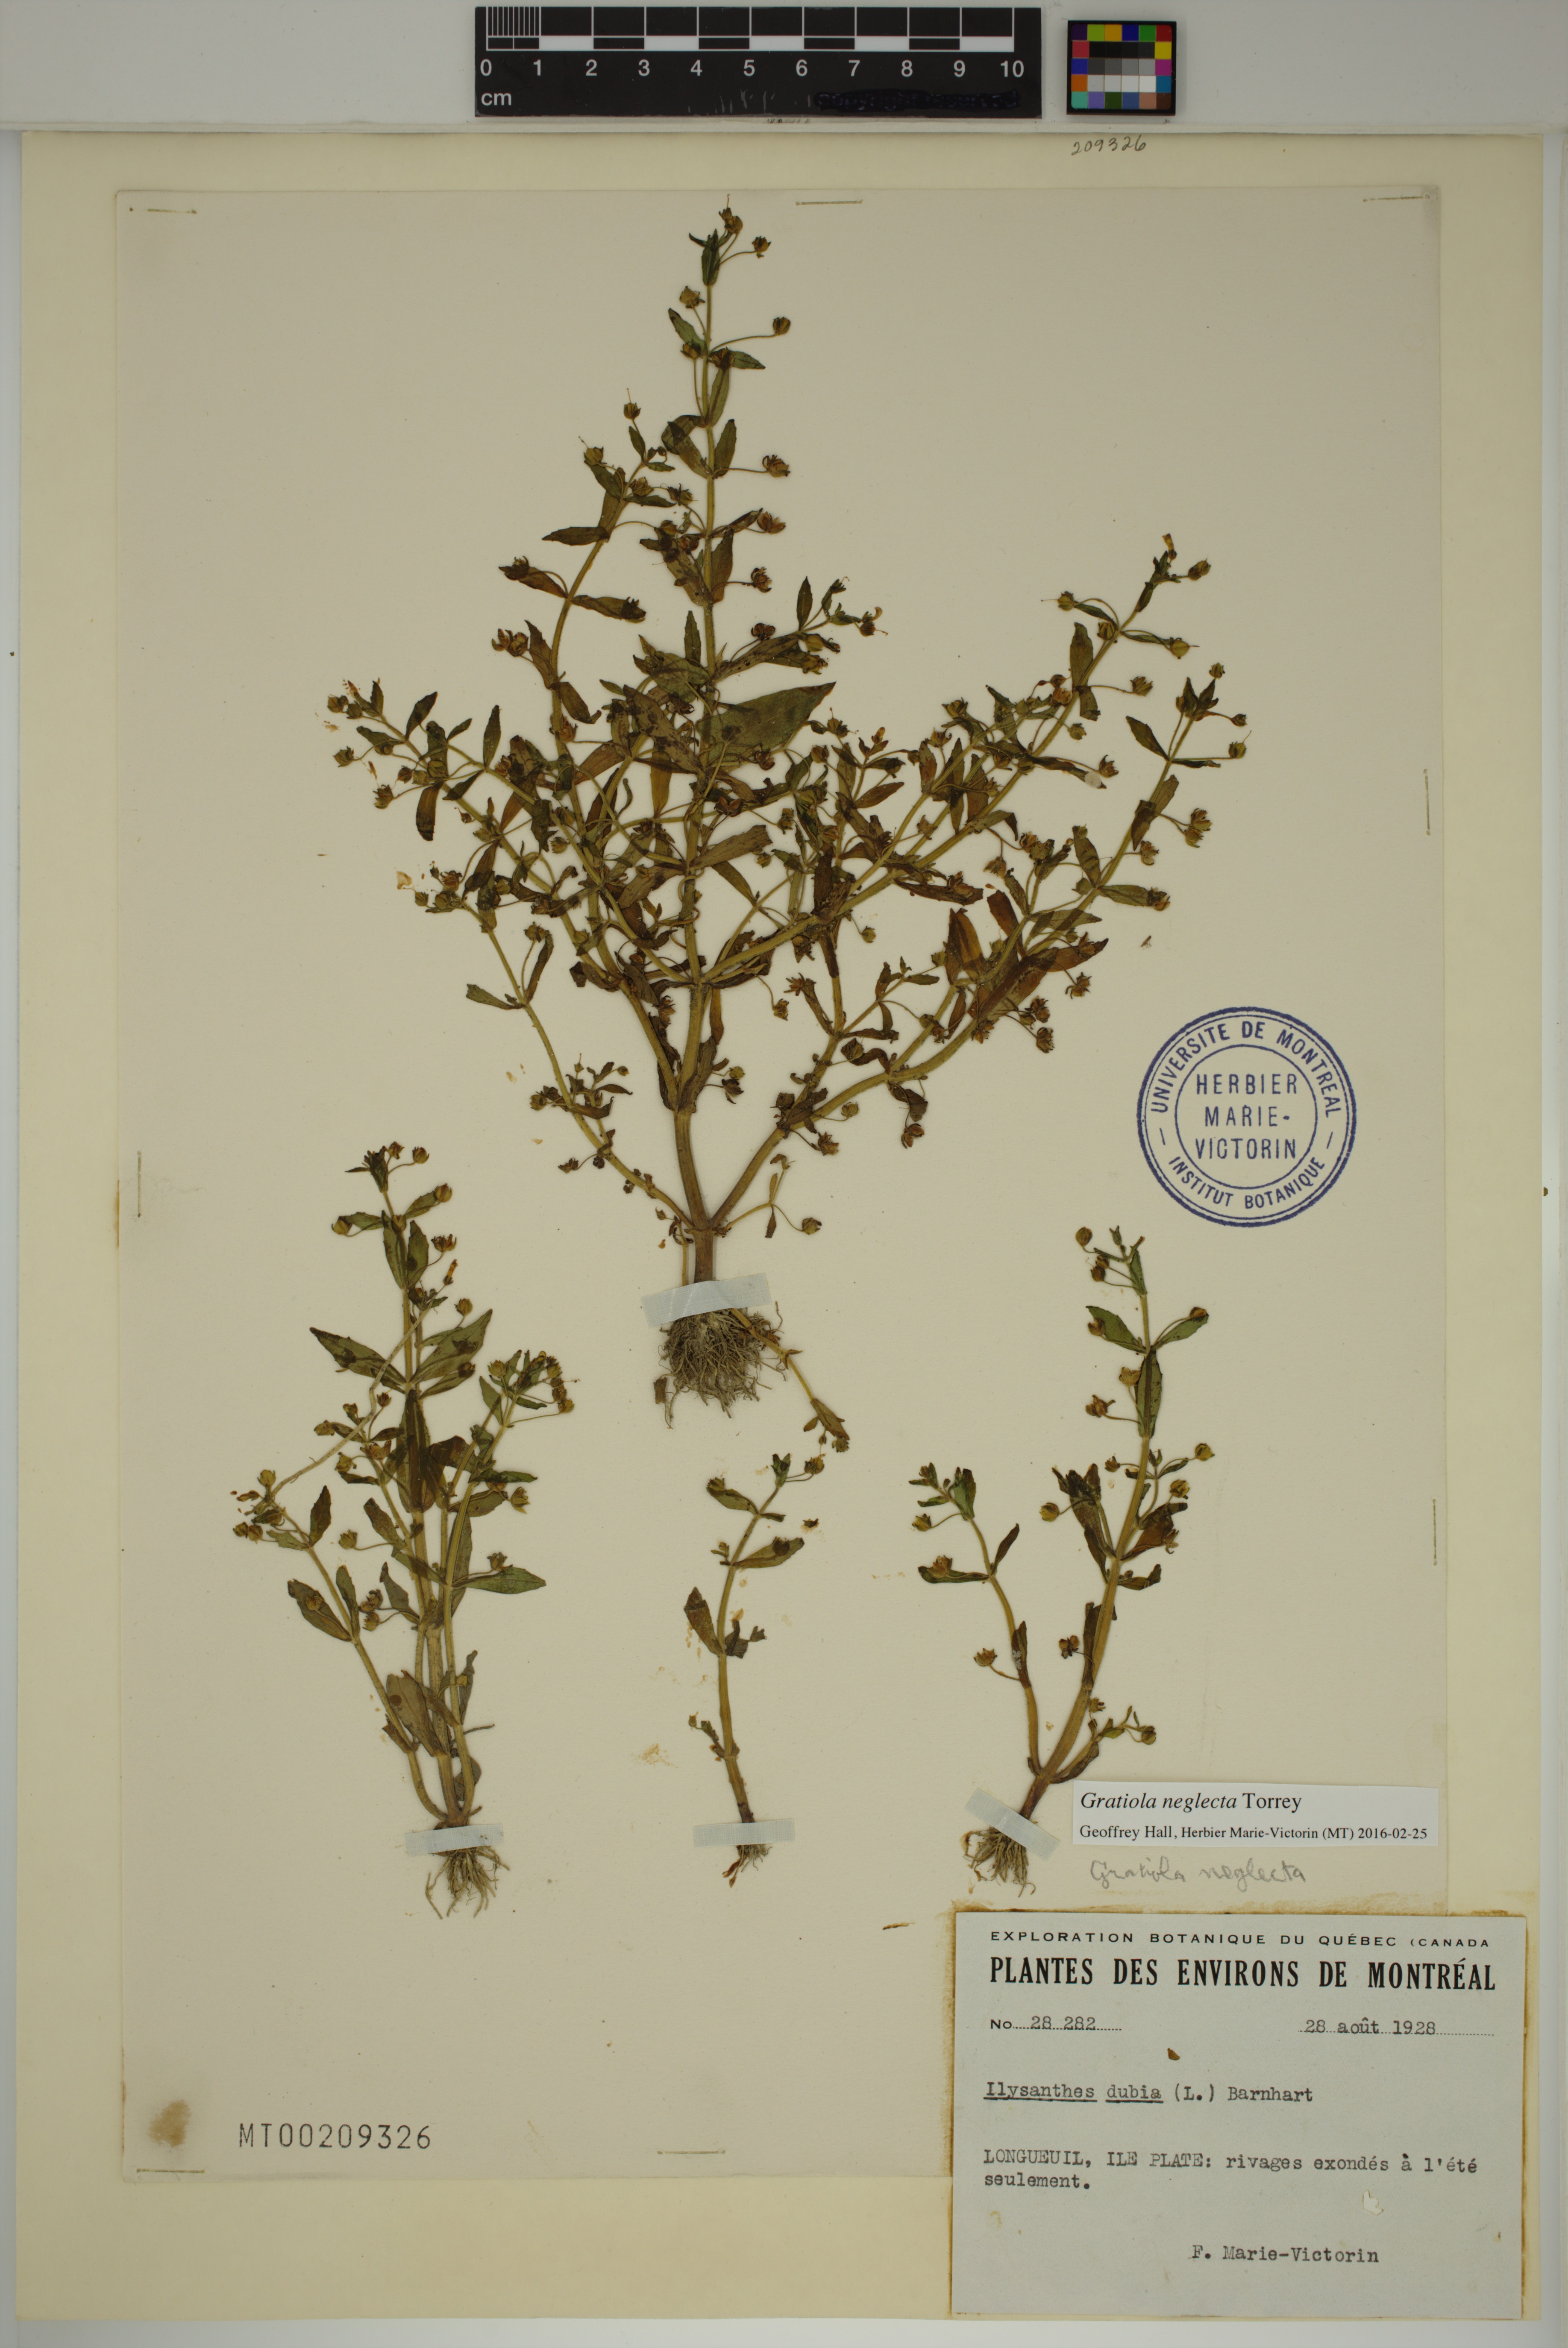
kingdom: Plantae
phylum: Tracheophyta
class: Magnoliopsida
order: Lamiales
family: Plantaginaceae
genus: Gratiola
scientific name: Gratiola neglecta
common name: American hedge-hyssop
